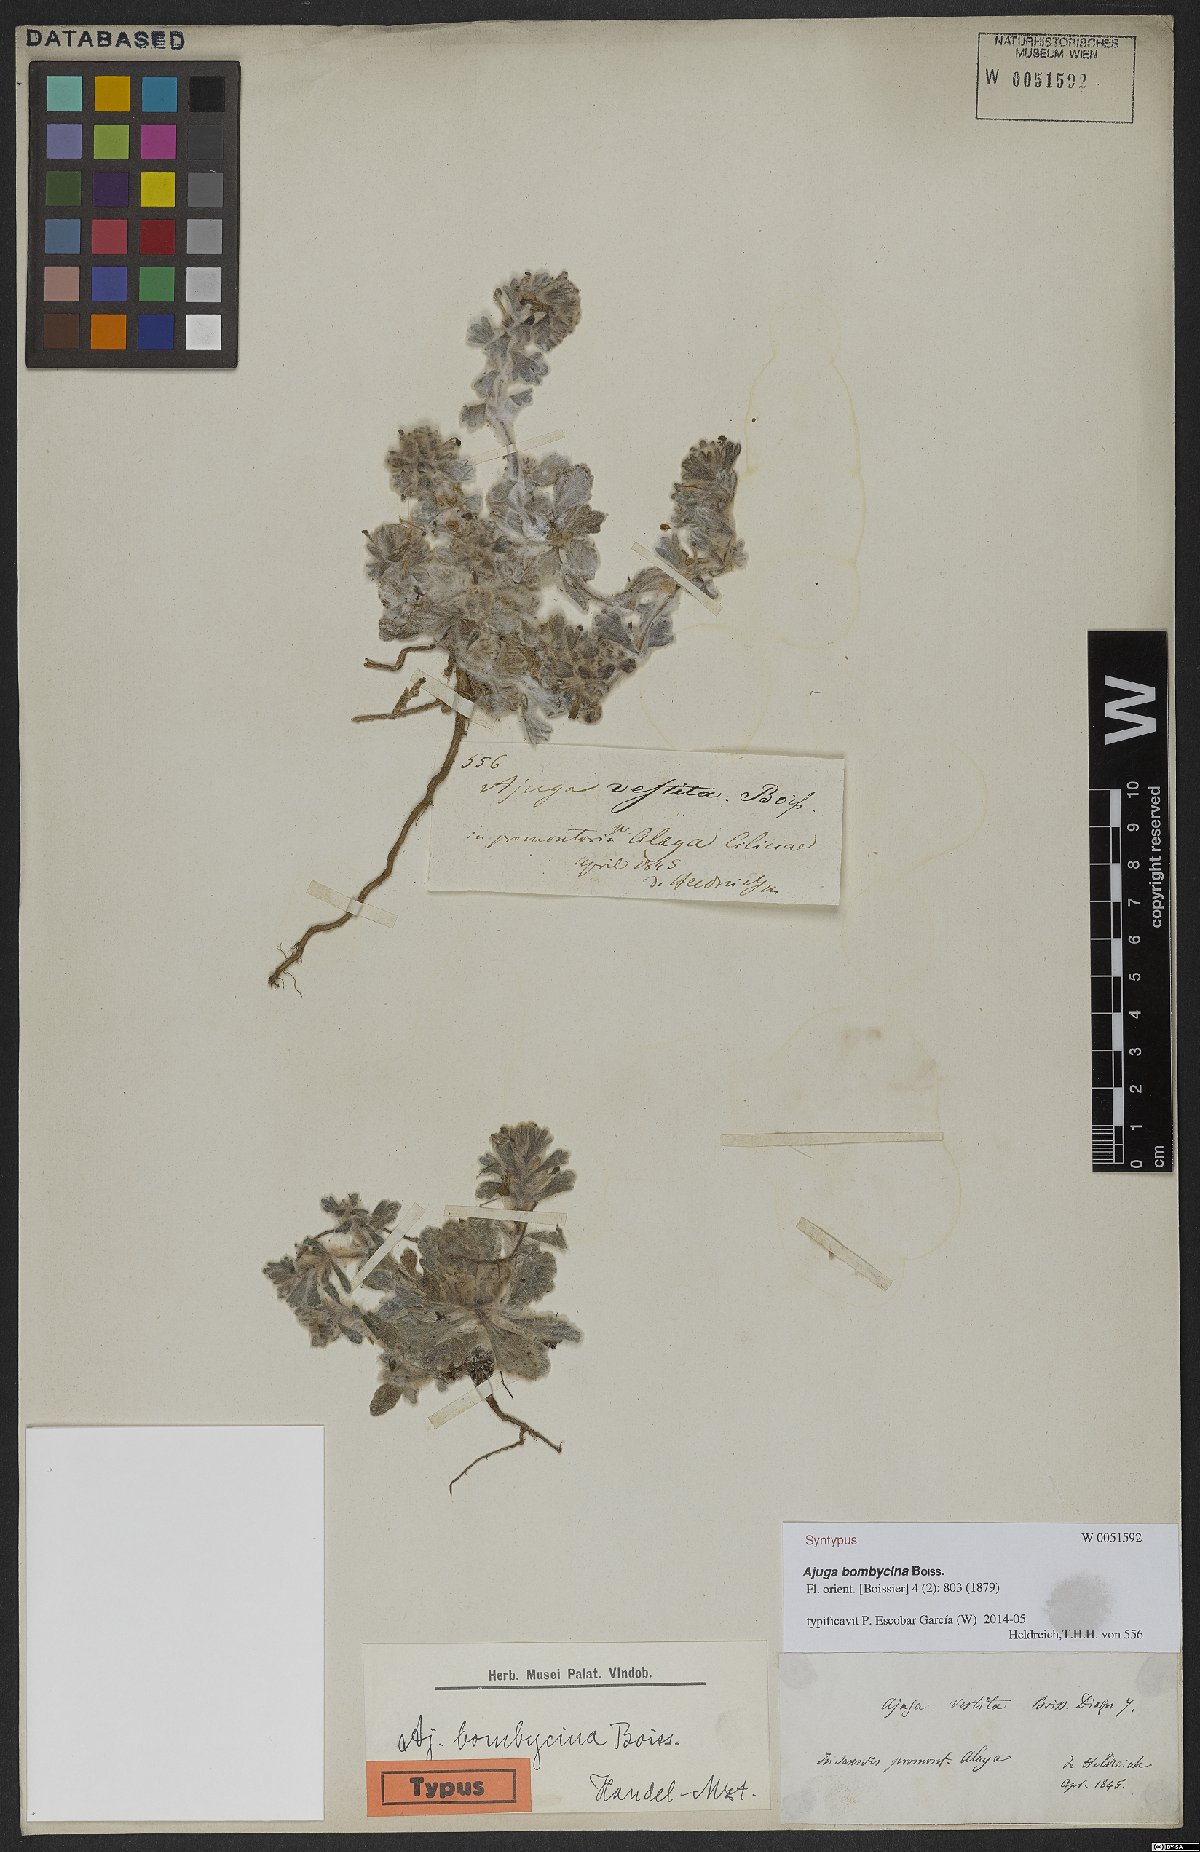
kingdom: Plantae
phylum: Tracheophyta
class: Magnoliopsida
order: Lamiales
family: Lamiaceae
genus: Ajuga
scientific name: Ajuga bombycina
